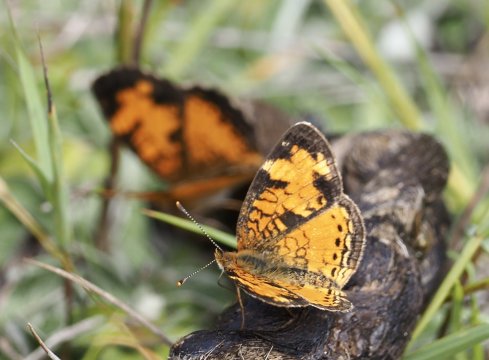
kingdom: Animalia
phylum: Arthropoda
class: Insecta
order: Lepidoptera
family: Nymphalidae
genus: Phyciodes
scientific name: Phyciodes tharos
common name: Northern Crescent
